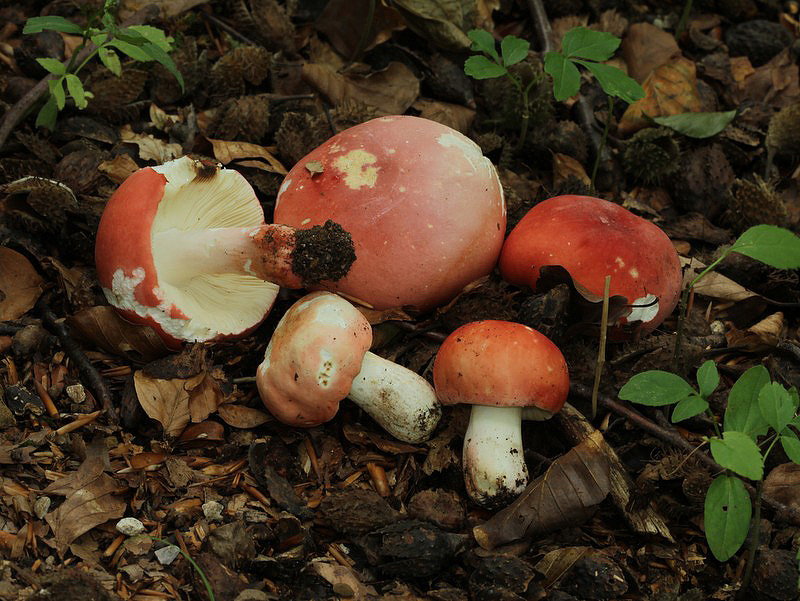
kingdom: Fungi
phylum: Basidiomycota
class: Agaricomycetes
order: Russulales
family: Russulaceae
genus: Russula
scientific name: Russula rosea
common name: fastkødet skørhat
